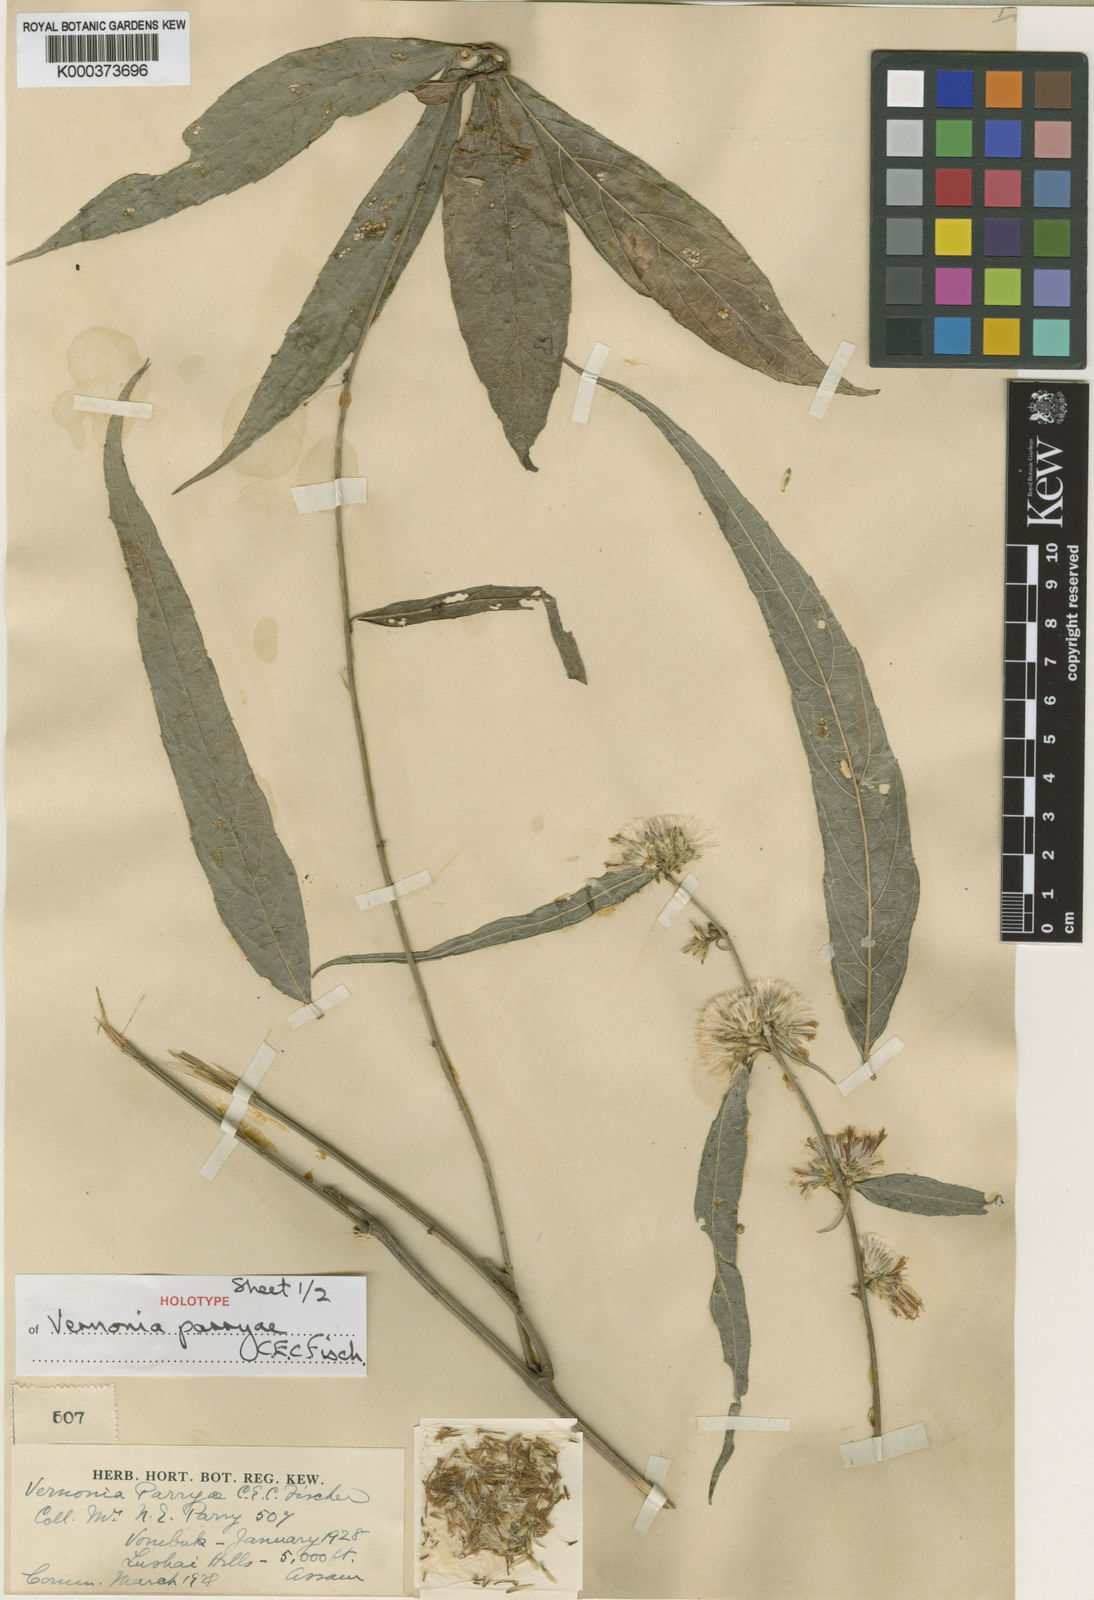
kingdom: Plantae
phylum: Tracheophyta
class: Magnoliopsida
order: Asterales
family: Asteraceae
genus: Vernonia
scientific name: Vernonia parryae
